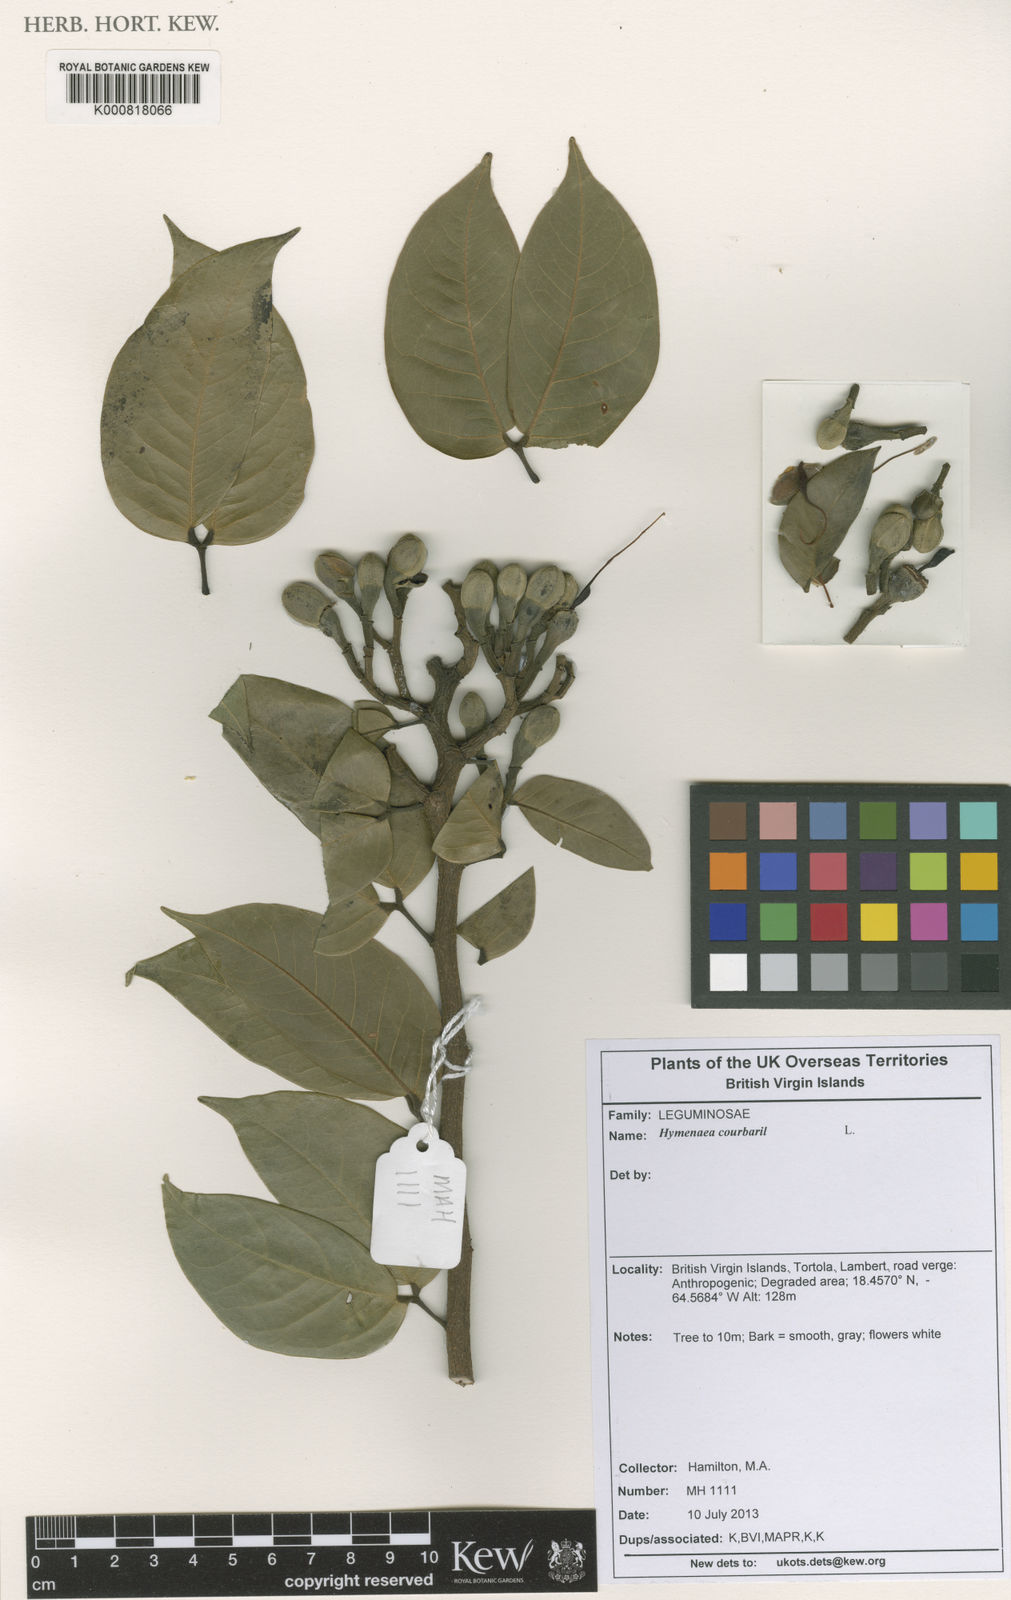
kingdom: Plantae
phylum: Tracheophyta
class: Liliopsida
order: Pandanales
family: Velloziaceae
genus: Acanthochlamys
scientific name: Acanthochlamys bracteata
